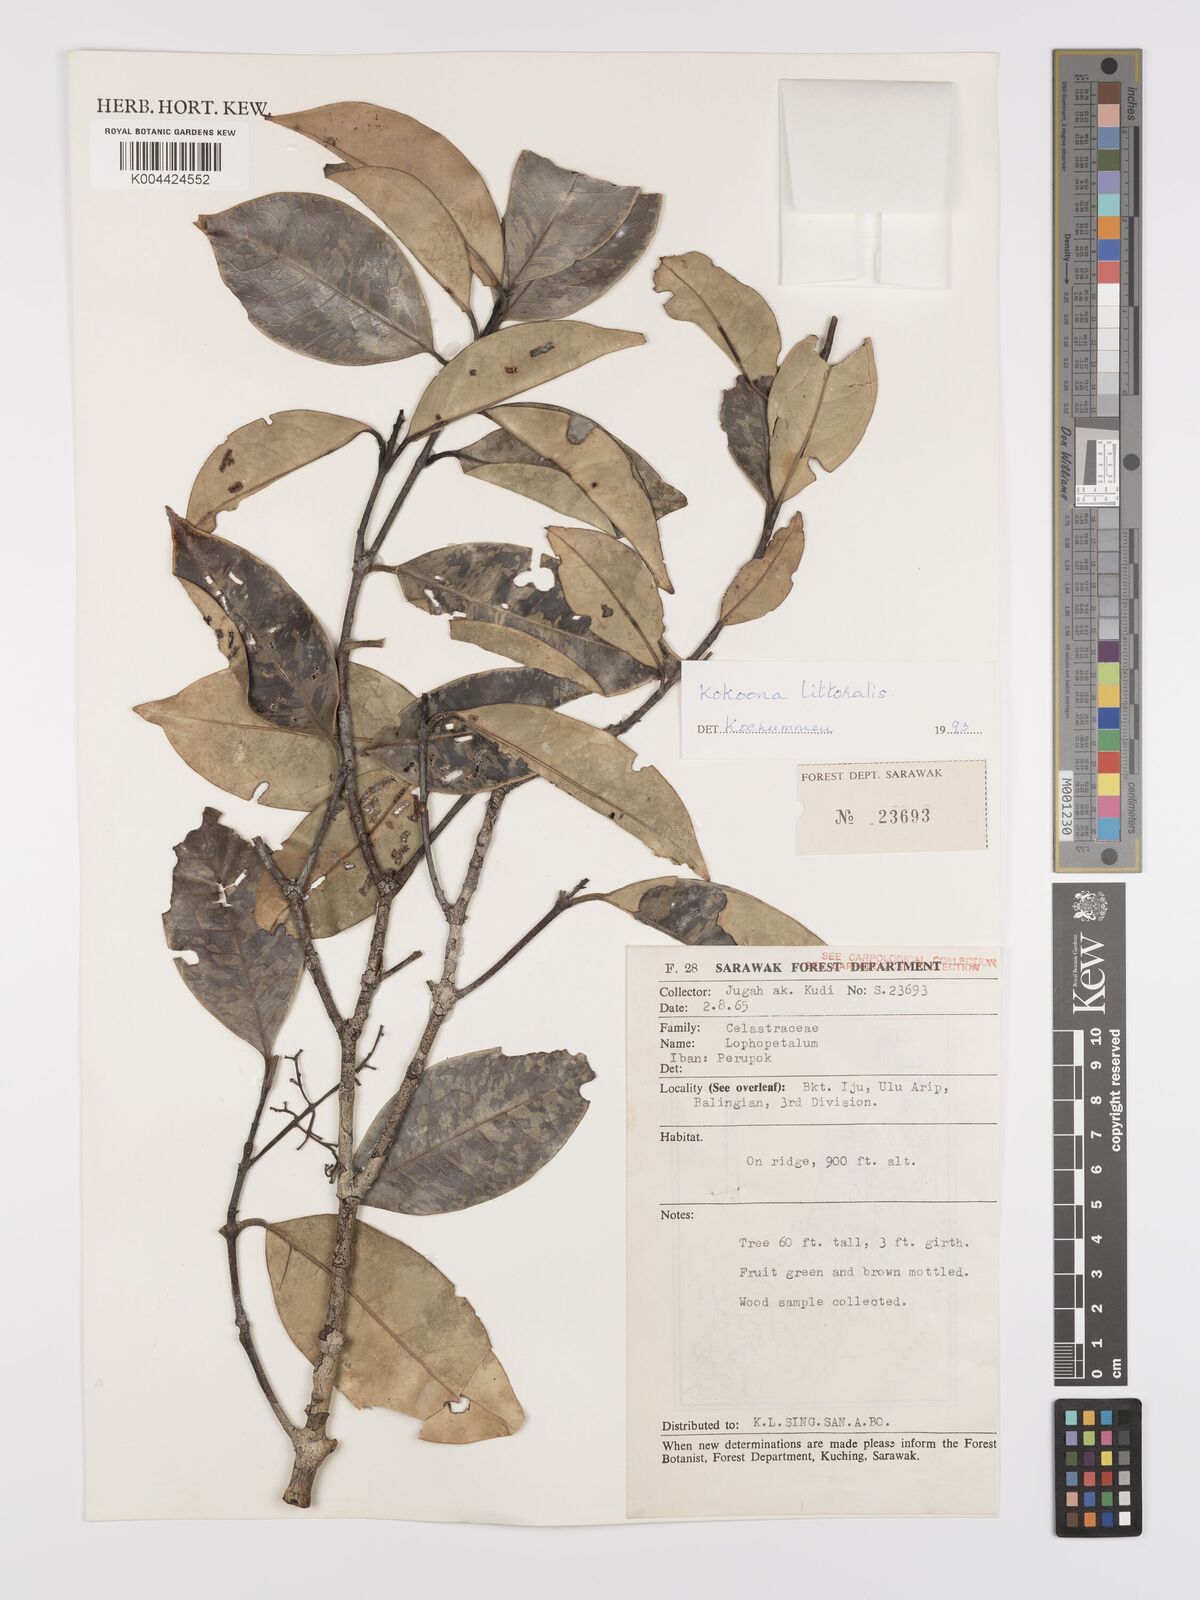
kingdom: Plantae
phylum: Tracheophyta
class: Magnoliopsida
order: Celastrales
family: Celastraceae
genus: Kokoona
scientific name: Kokoona littoralis
